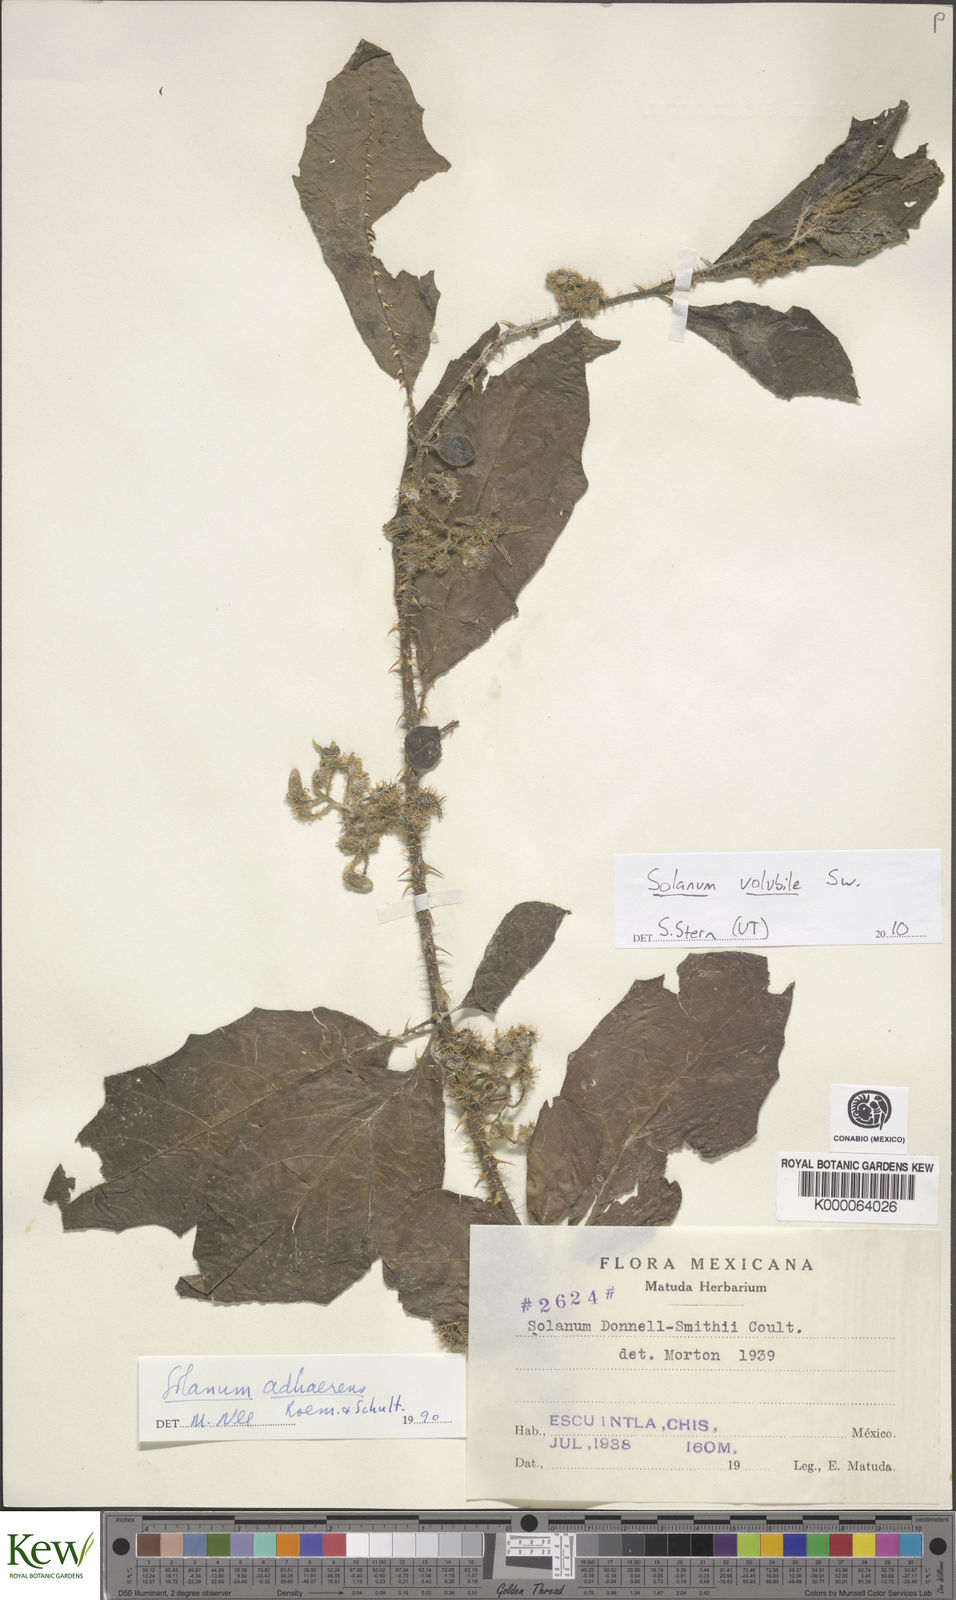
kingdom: Plantae
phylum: Tracheophyta
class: Magnoliopsida
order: Solanales
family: Solanaceae
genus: Solanum
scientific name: Solanum volubile
